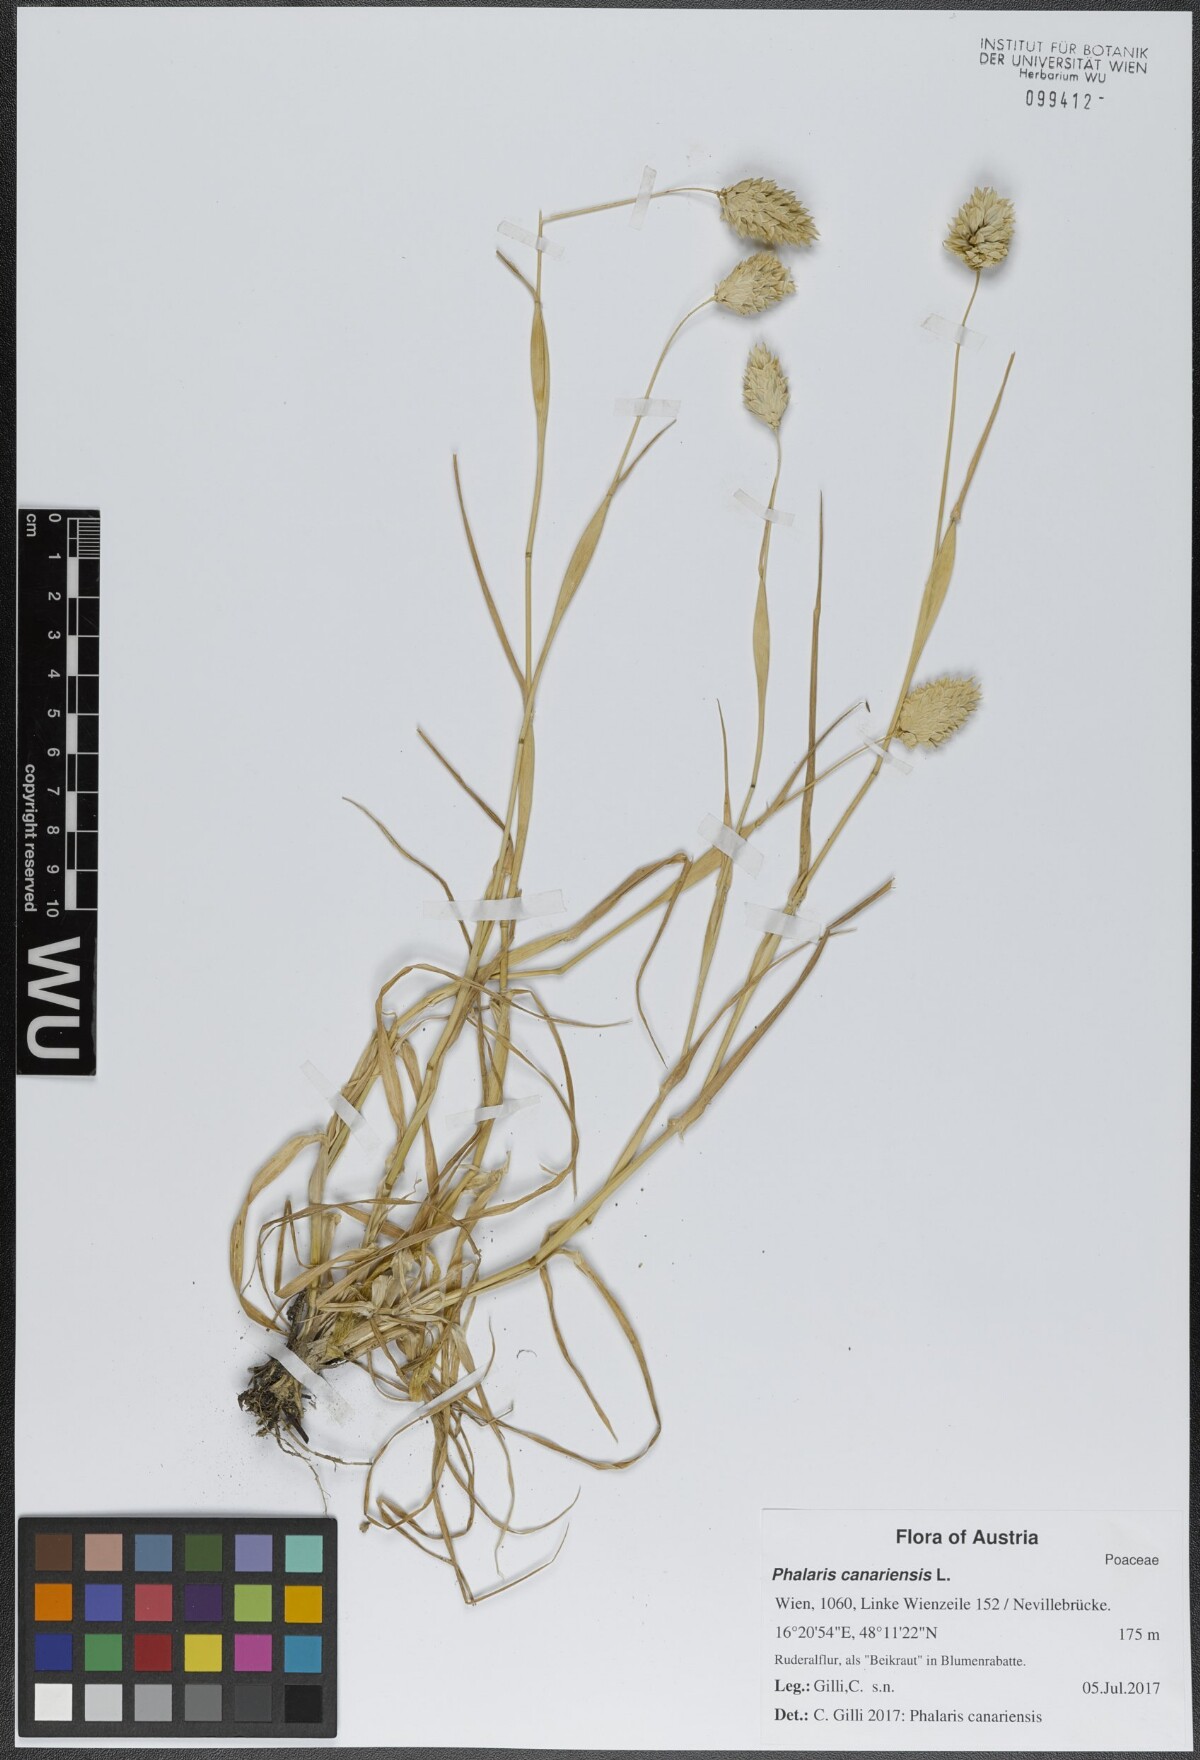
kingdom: Plantae
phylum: Tracheophyta
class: Liliopsida
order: Poales
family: Poaceae
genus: Phalaris
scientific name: Phalaris canariensis
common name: Annual canarygrass
